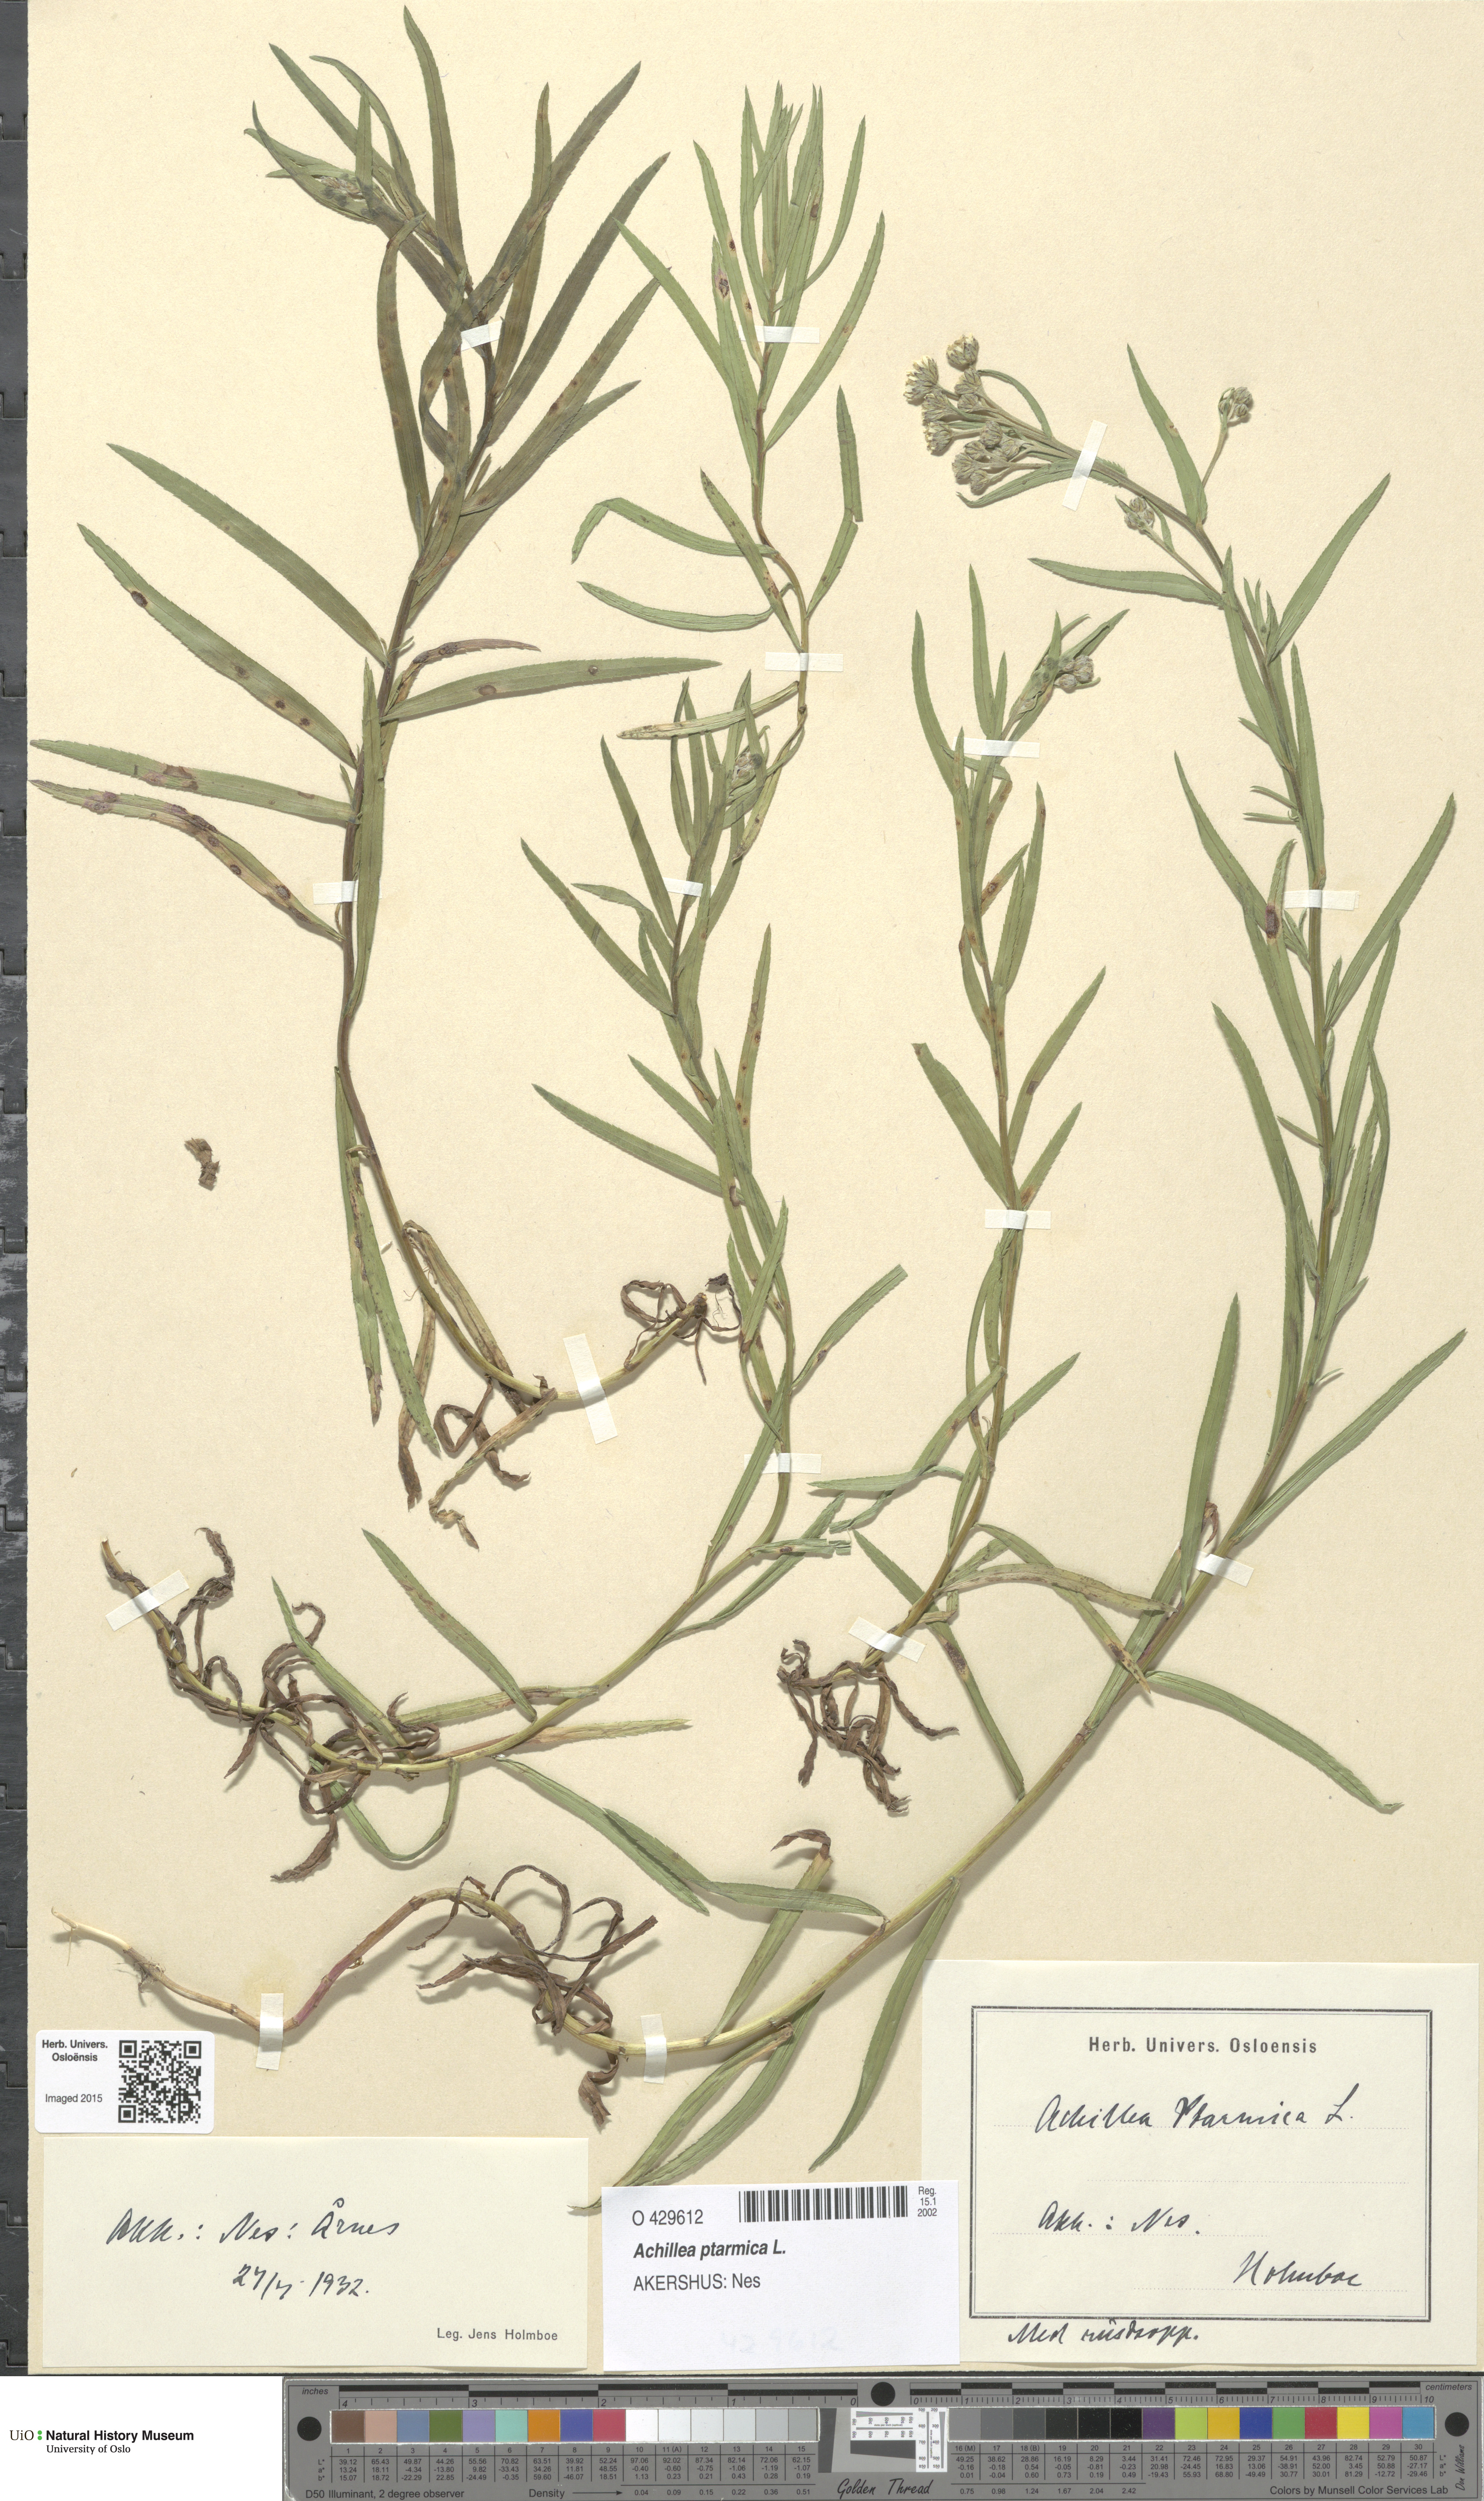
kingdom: Plantae
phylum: Tracheophyta
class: Magnoliopsida
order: Asterales
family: Asteraceae
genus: Achillea
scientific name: Achillea ptarmica
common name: Sneezeweed
